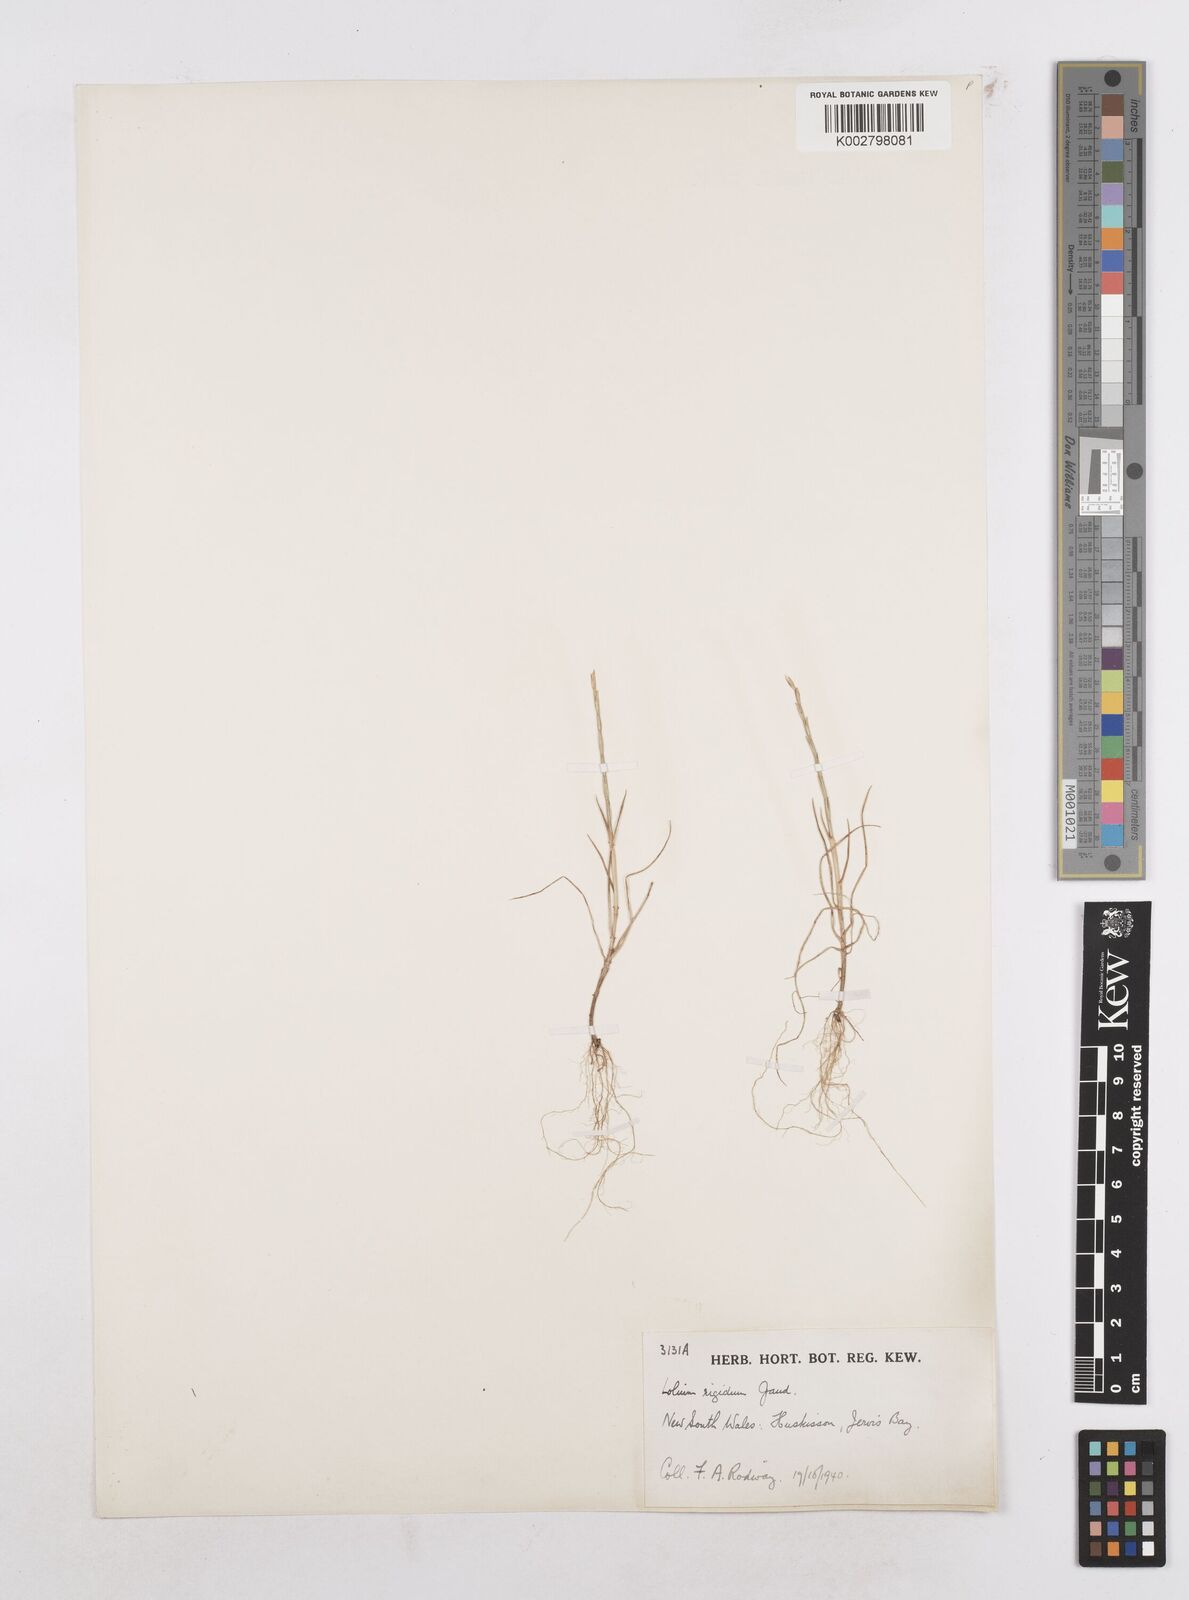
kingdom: Plantae
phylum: Tracheophyta
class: Liliopsida
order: Poales
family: Poaceae
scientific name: Poaceae
